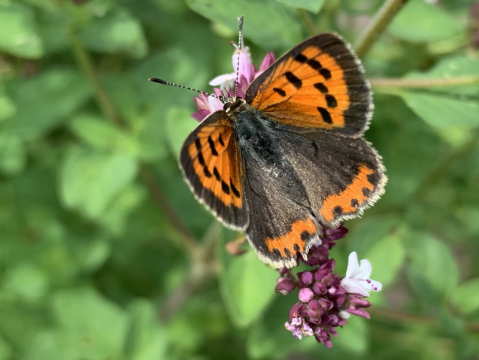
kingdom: Animalia
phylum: Arthropoda
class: Insecta
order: Lepidoptera
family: Lycaenidae
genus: Lycaena
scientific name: Lycaena phlaeas
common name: American Copper
